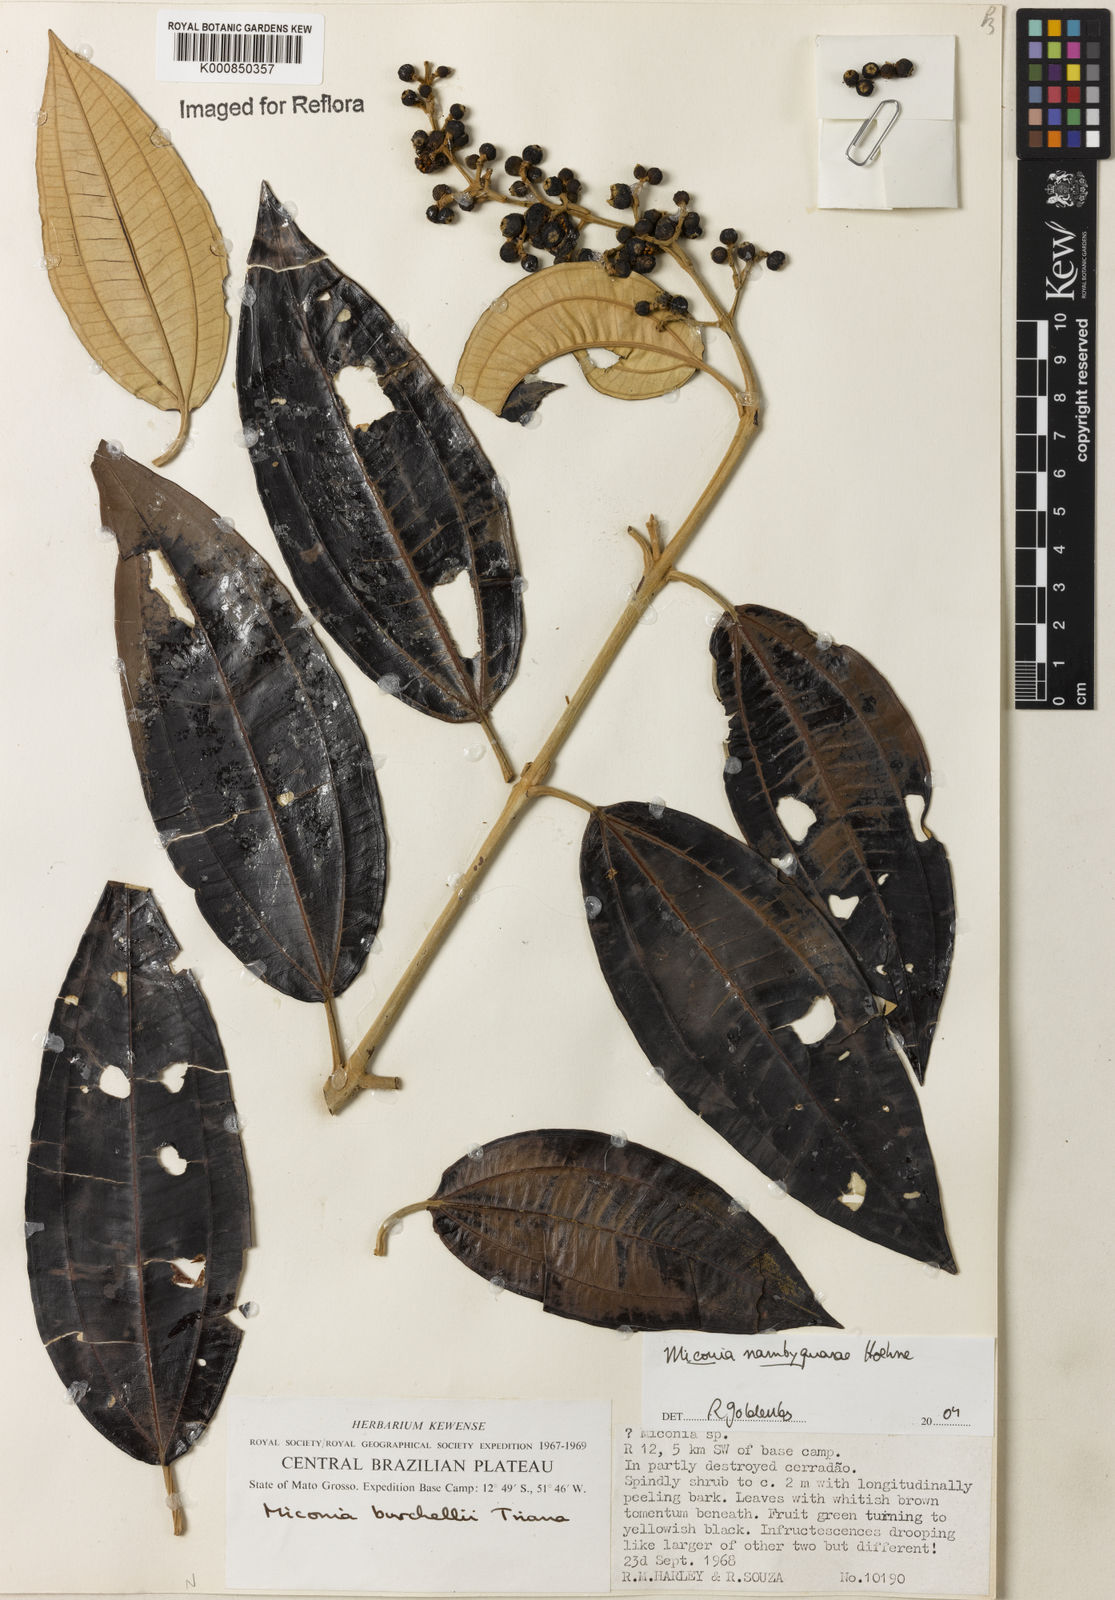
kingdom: Plantae
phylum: Tracheophyta
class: Magnoliopsida
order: Myrtales
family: Melastomataceae
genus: Miconia
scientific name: Miconia nambyquarae
